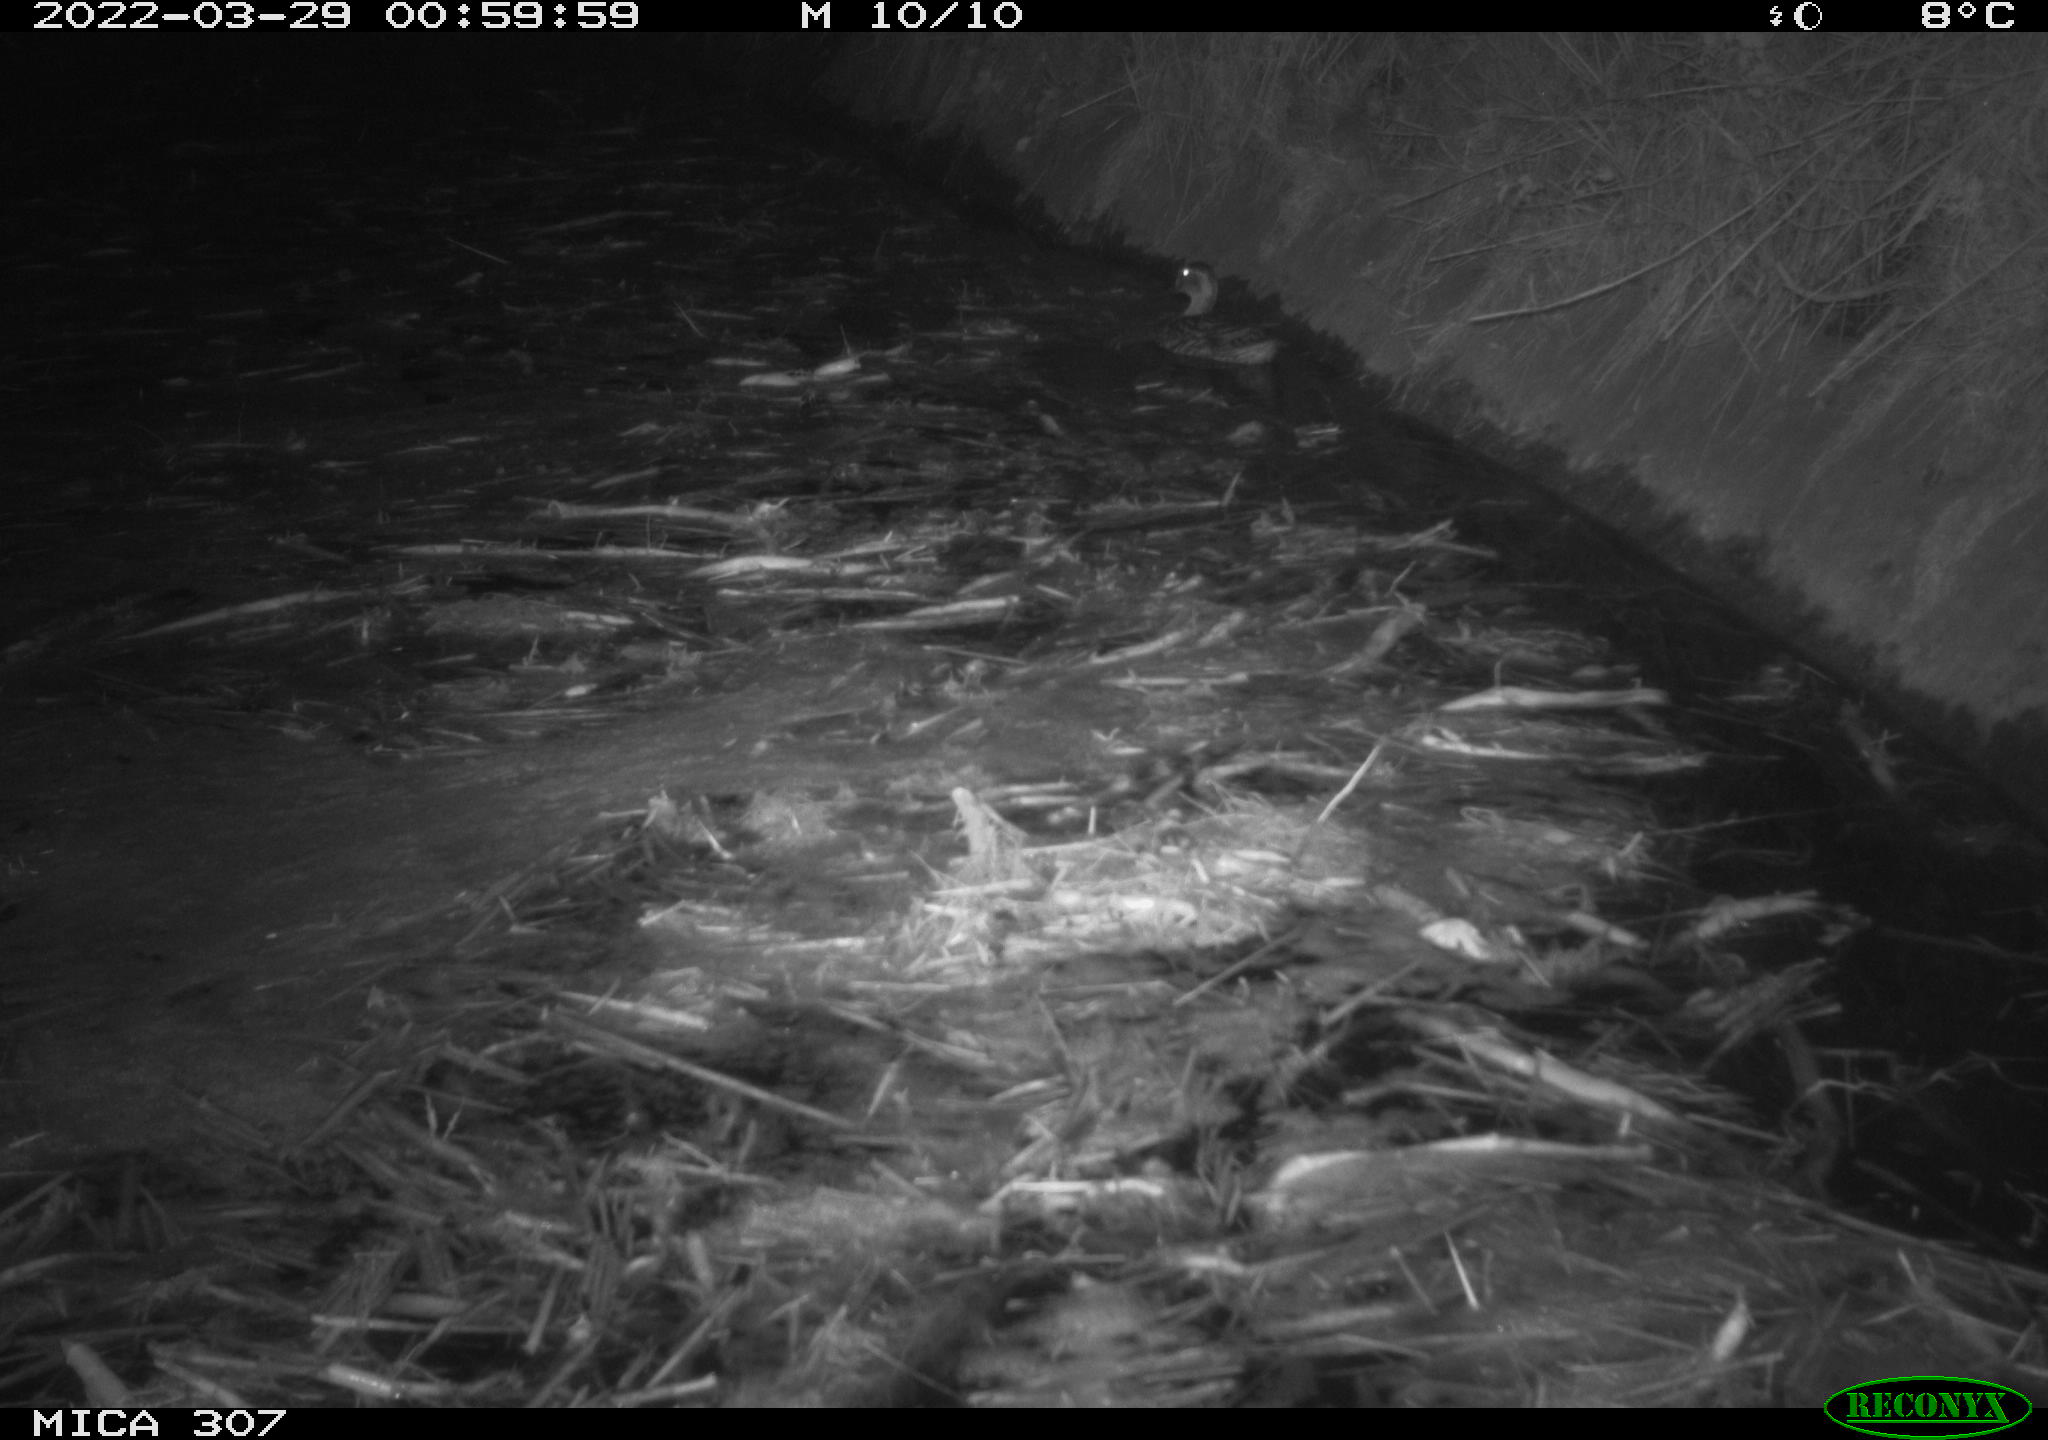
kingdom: Animalia
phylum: Chordata
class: Aves
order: Anseriformes
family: Anatidae
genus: Anas
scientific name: Anas platyrhynchos
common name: Mallard
